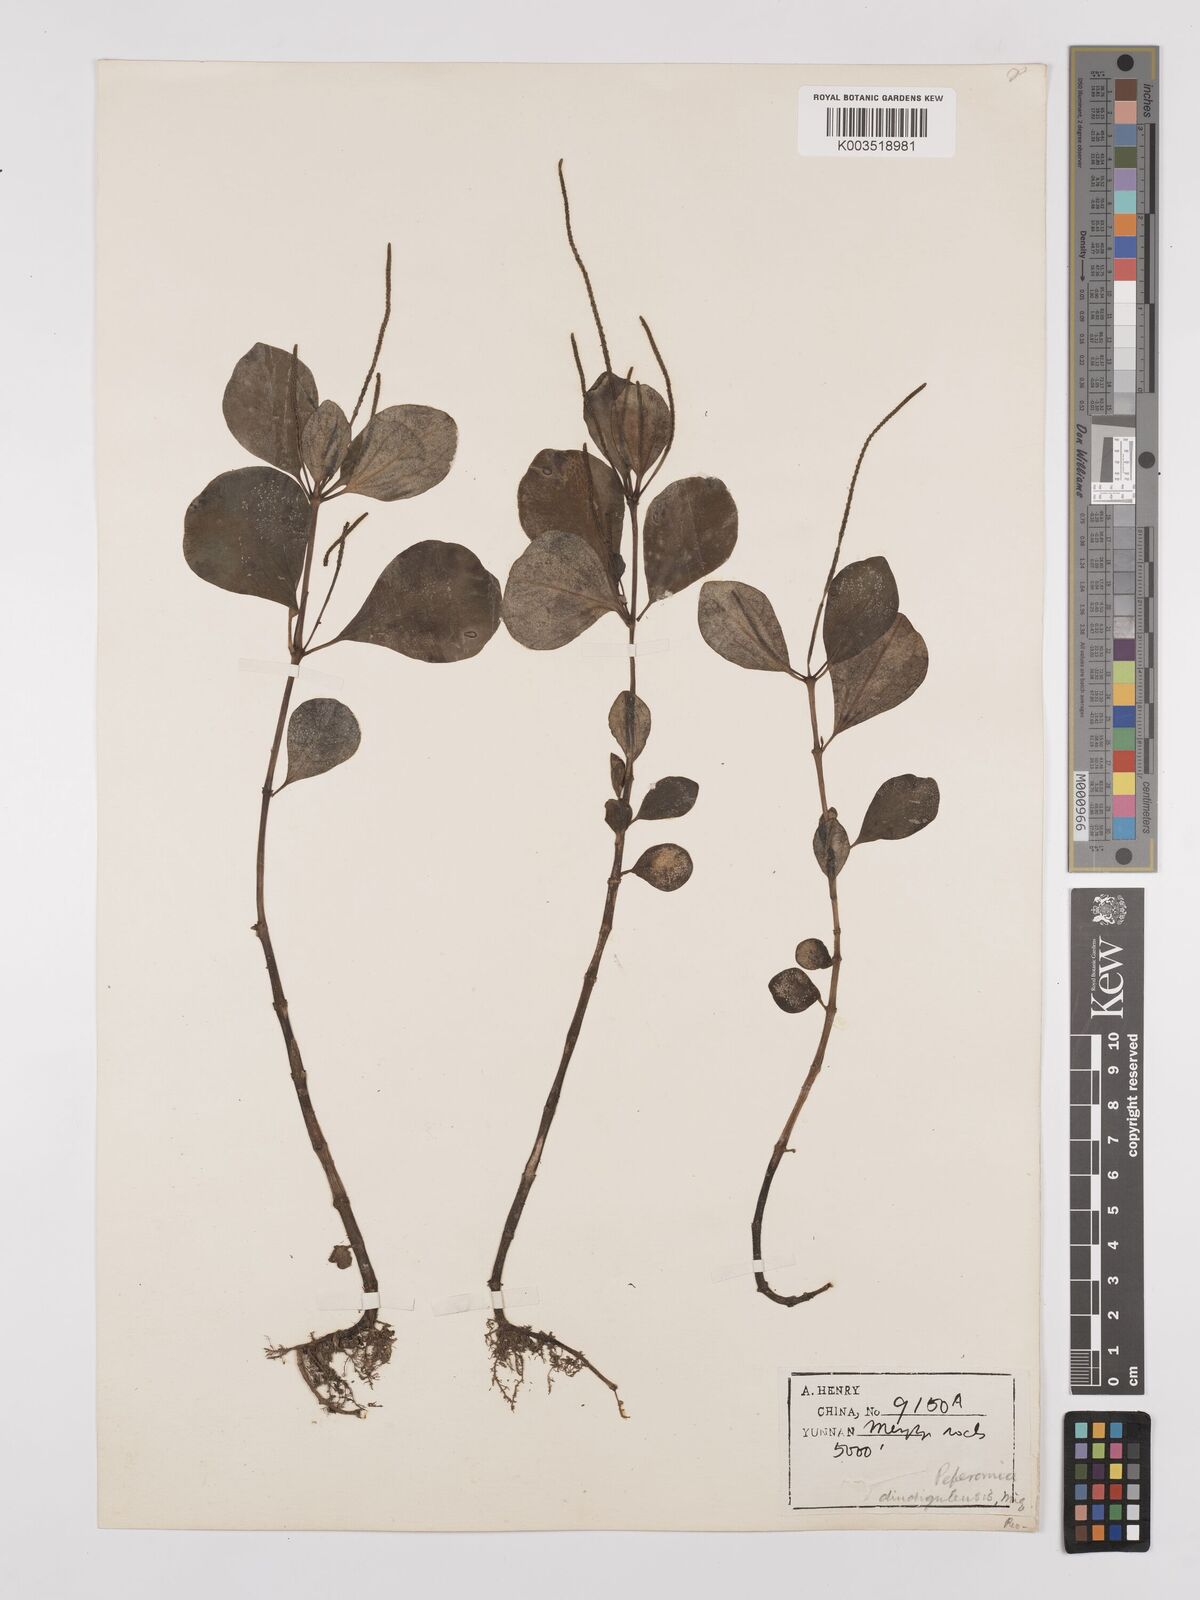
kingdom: Plantae
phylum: Tracheophyta
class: Magnoliopsida
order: Piperales
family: Piperaceae
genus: Peperomia
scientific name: Peperomia leptostachya
